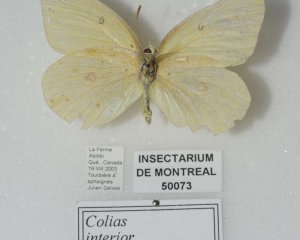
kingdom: Animalia
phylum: Arthropoda
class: Insecta
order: Lepidoptera
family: Pieridae
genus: Colias
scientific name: Colias interior
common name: Pink-edged Sulphur
